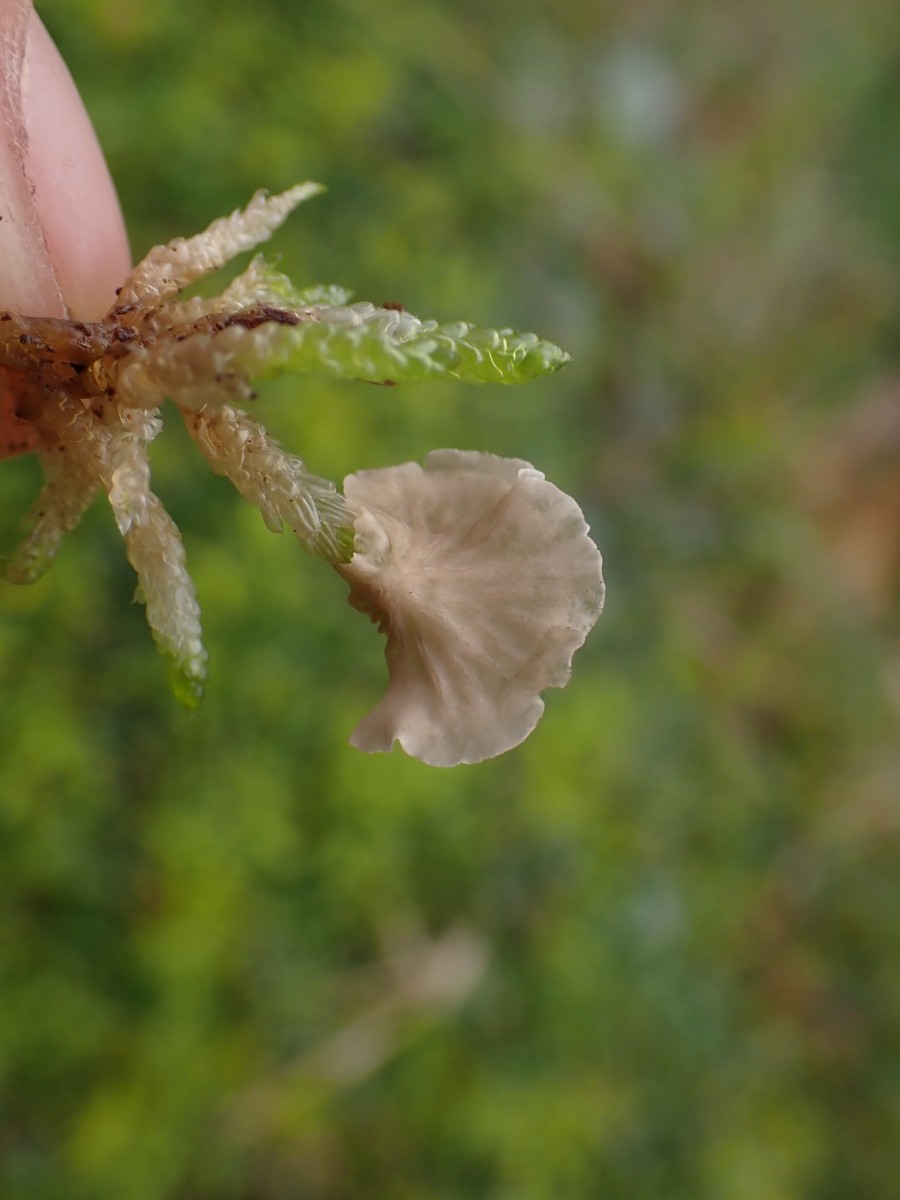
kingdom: Fungi
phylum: Basidiomycota
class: Agaricomycetes
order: Agaricales
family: Hygrophoraceae
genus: Arrhenia
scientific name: Arrhenia retiruga
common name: lille fontænehat
